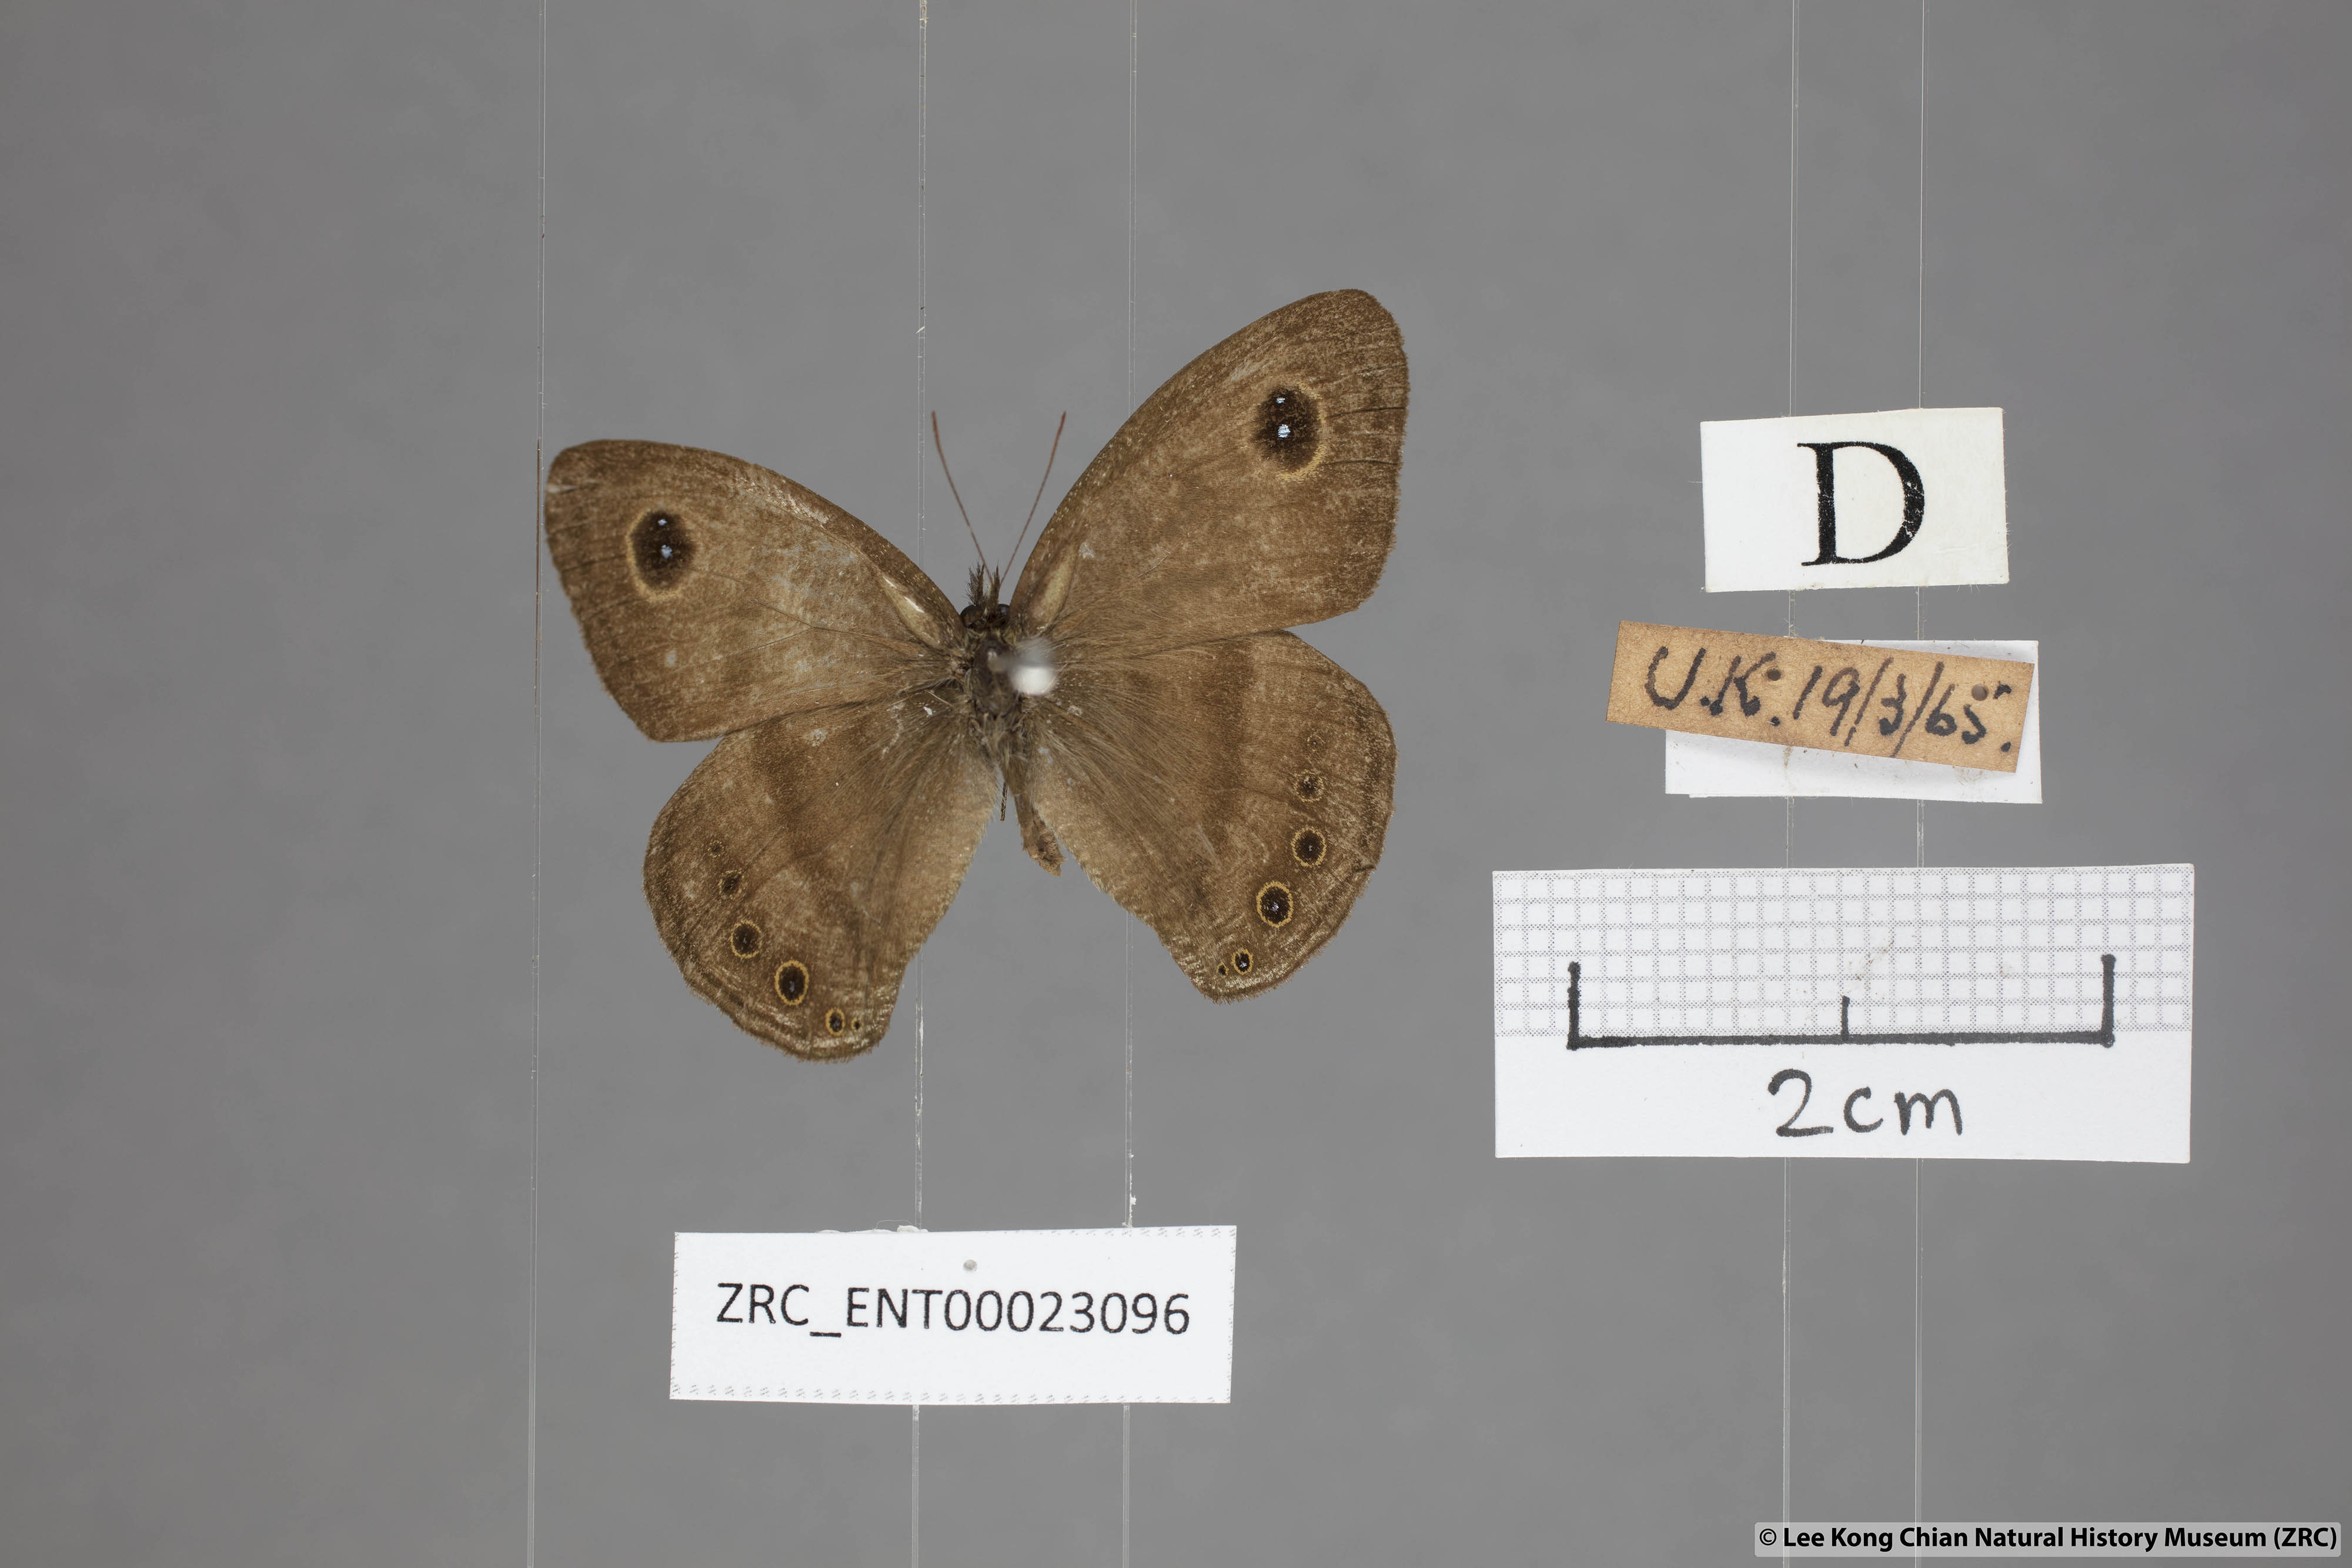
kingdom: Animalia
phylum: Arthropoda
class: Insecta
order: Lepidoptera
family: Nymphalidae
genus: Ypthima
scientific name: Ypthima fasciata
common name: Malayan six-ring
